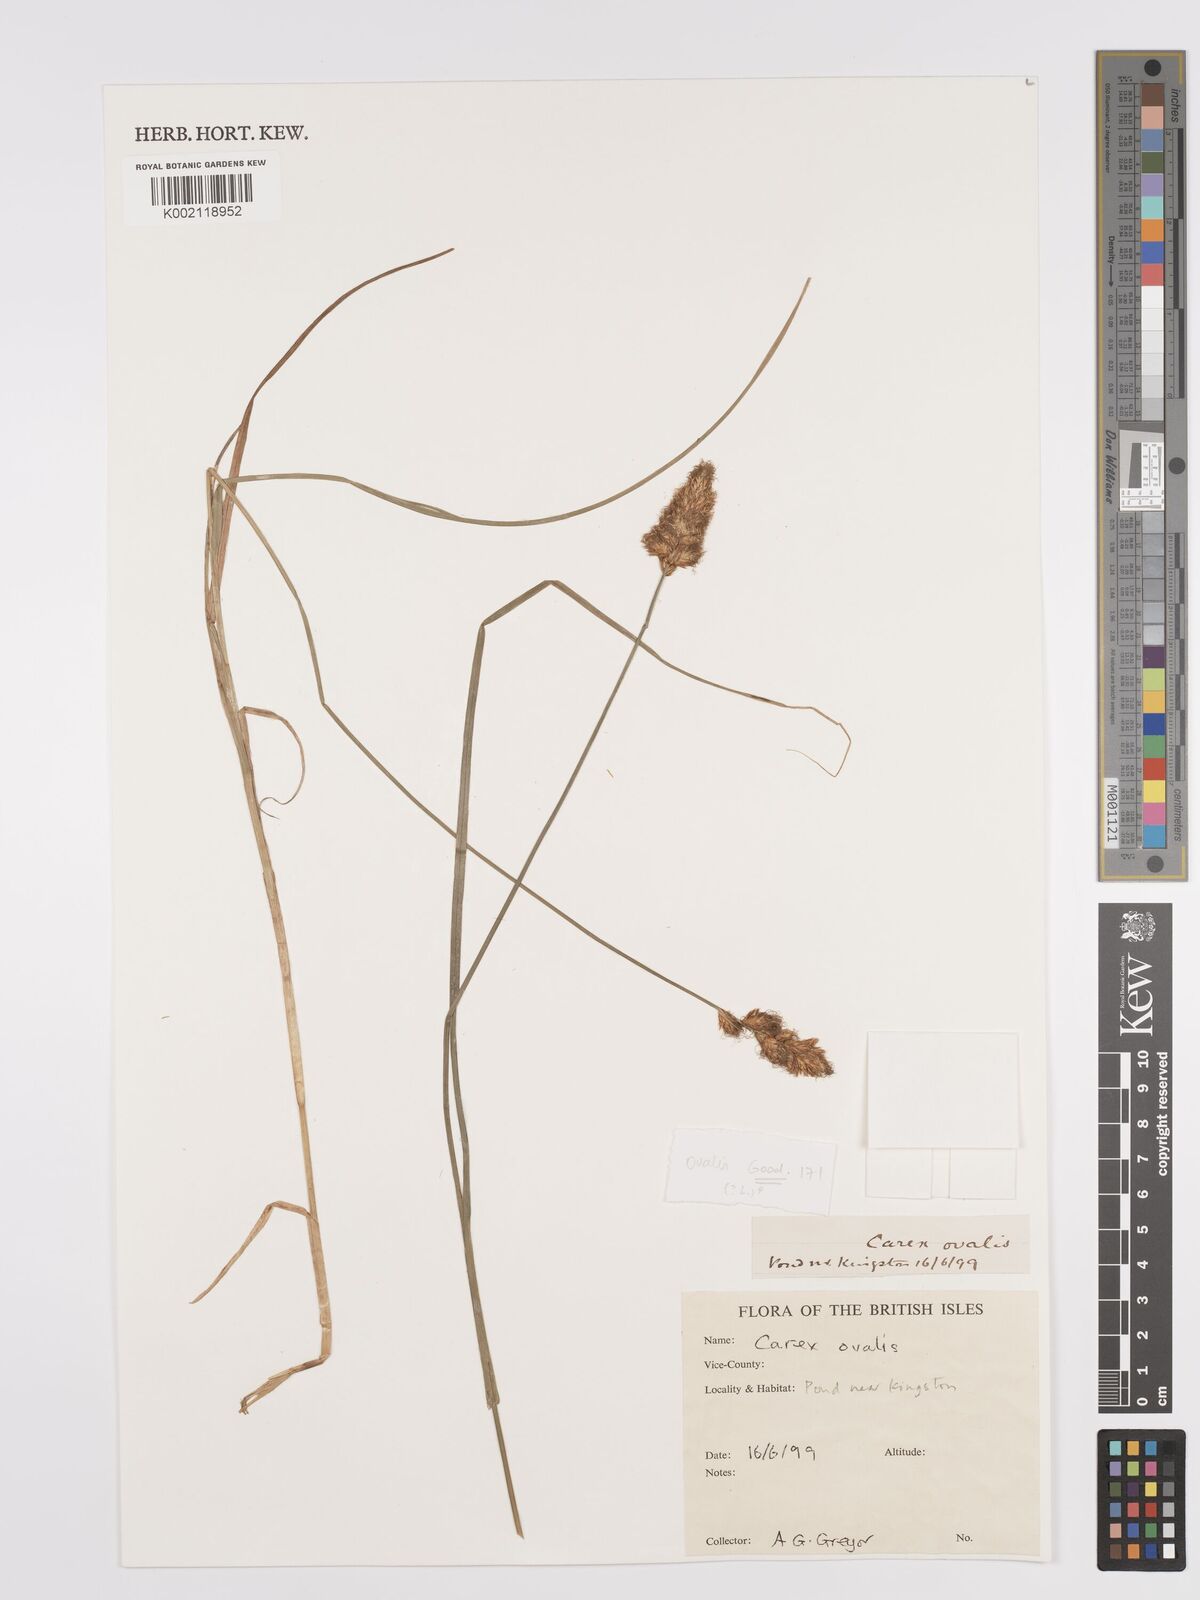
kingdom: Plantae
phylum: Tracheophyta
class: Liliopsida
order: Poales
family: Cyperaceae
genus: Carex
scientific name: Carex leporina
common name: Oval sedge
